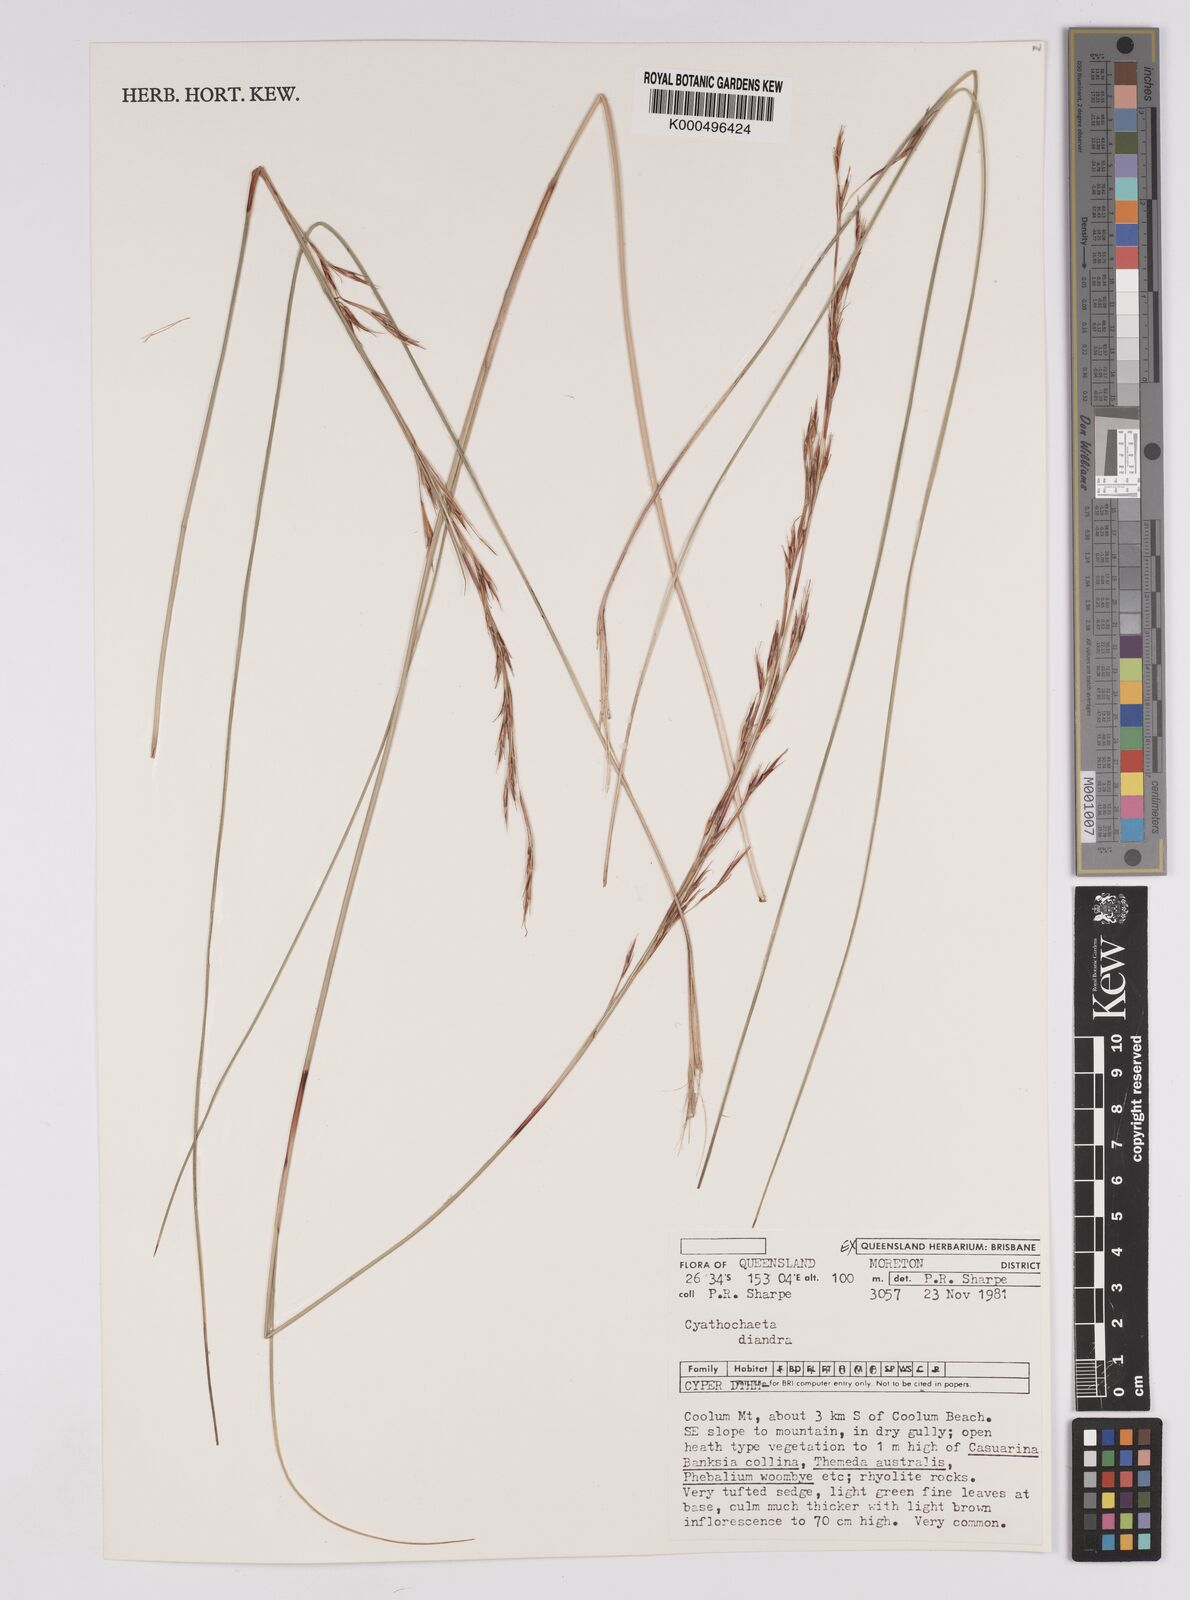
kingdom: Plantae
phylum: Tracheophyta
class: Liliopsida
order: Poales
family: Cyperaceae
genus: Cyathochaeta
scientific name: Cyathochaeta diandra
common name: Sheath rush
